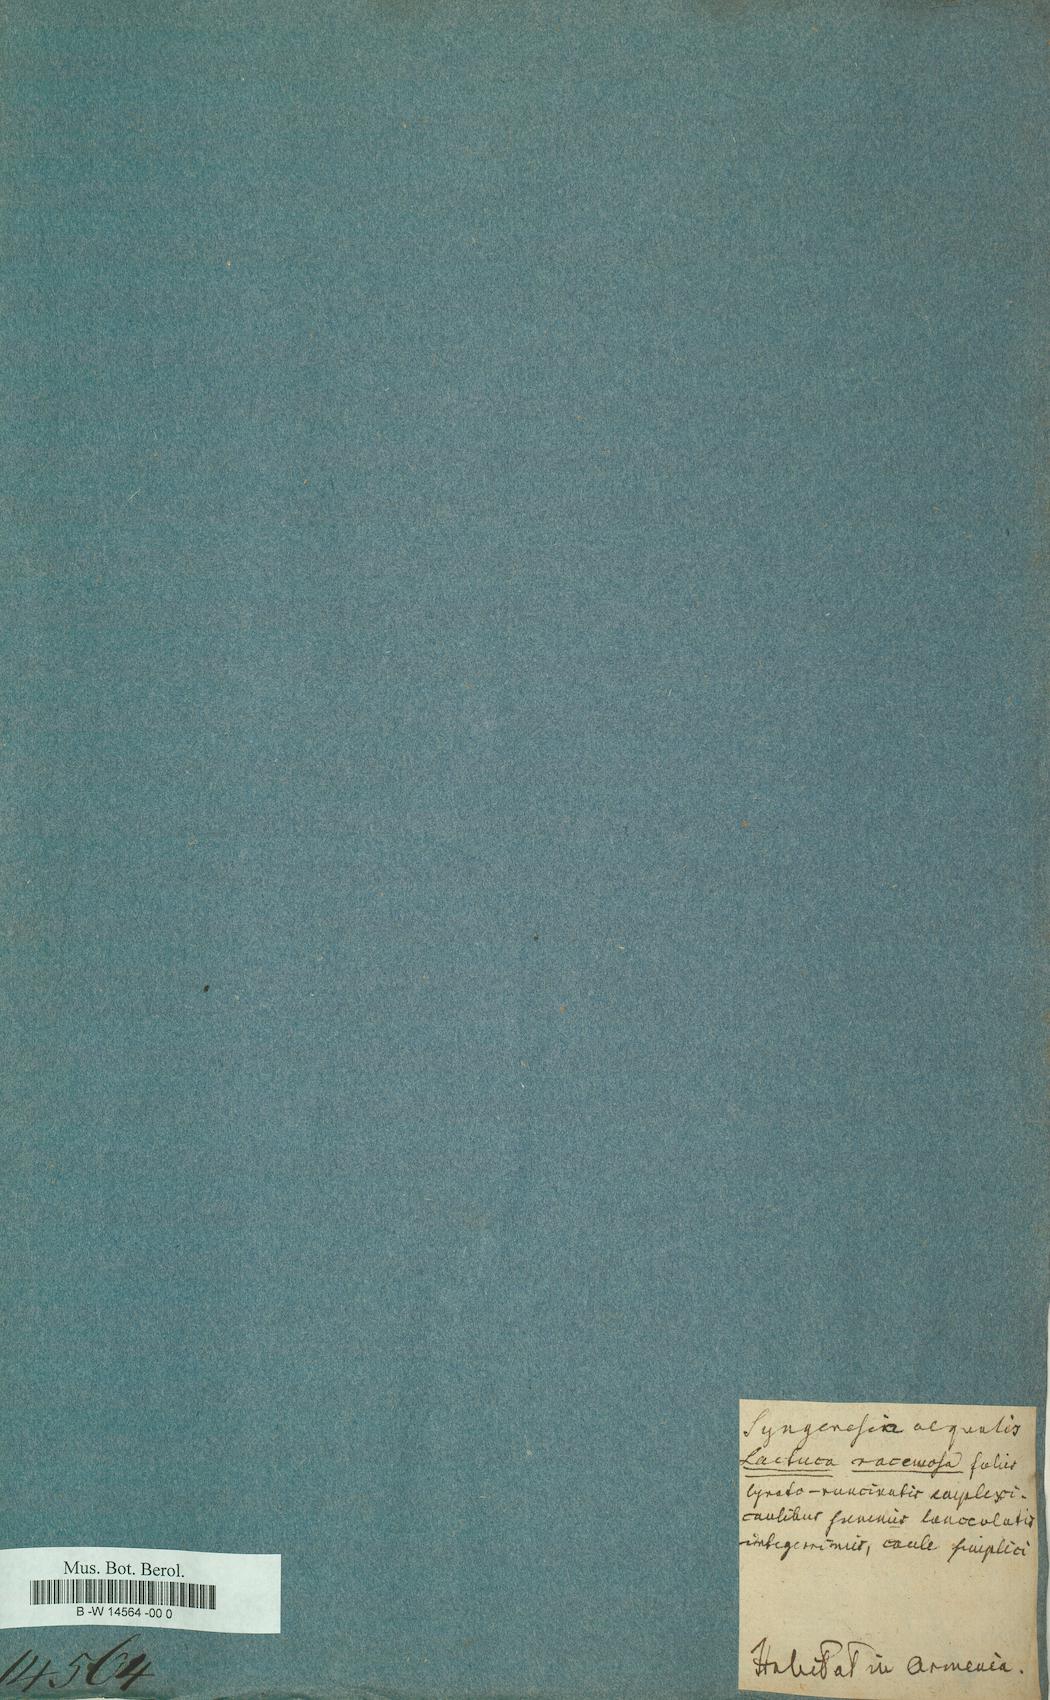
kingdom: Plantae
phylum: Tracheophyta
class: Magnoliopsida
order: Asterales
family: Asteraceae
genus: Lactuca
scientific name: Lactuca racemosa
